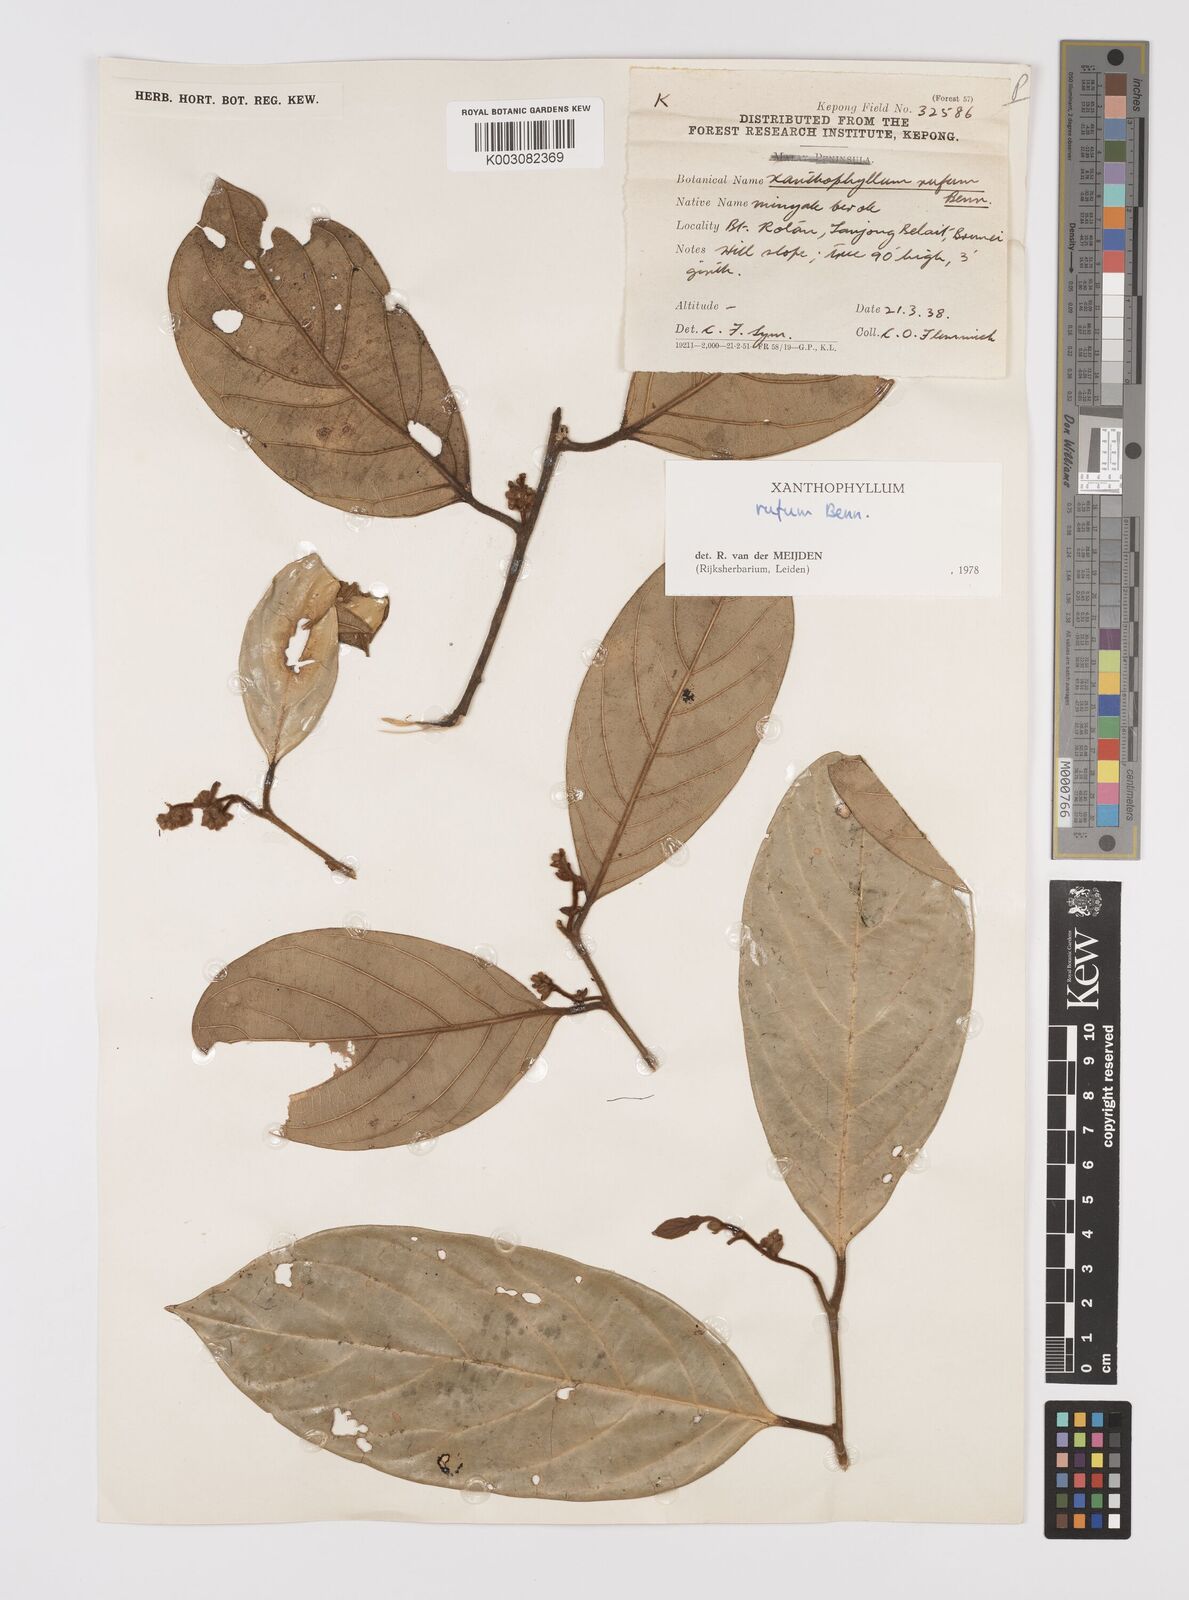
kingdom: Plantae
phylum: Tracheophyta
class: Magnoliopsida
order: Fabales
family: Polygalaceae
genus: Xanthophyllum
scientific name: Xanthophyllum rufum
